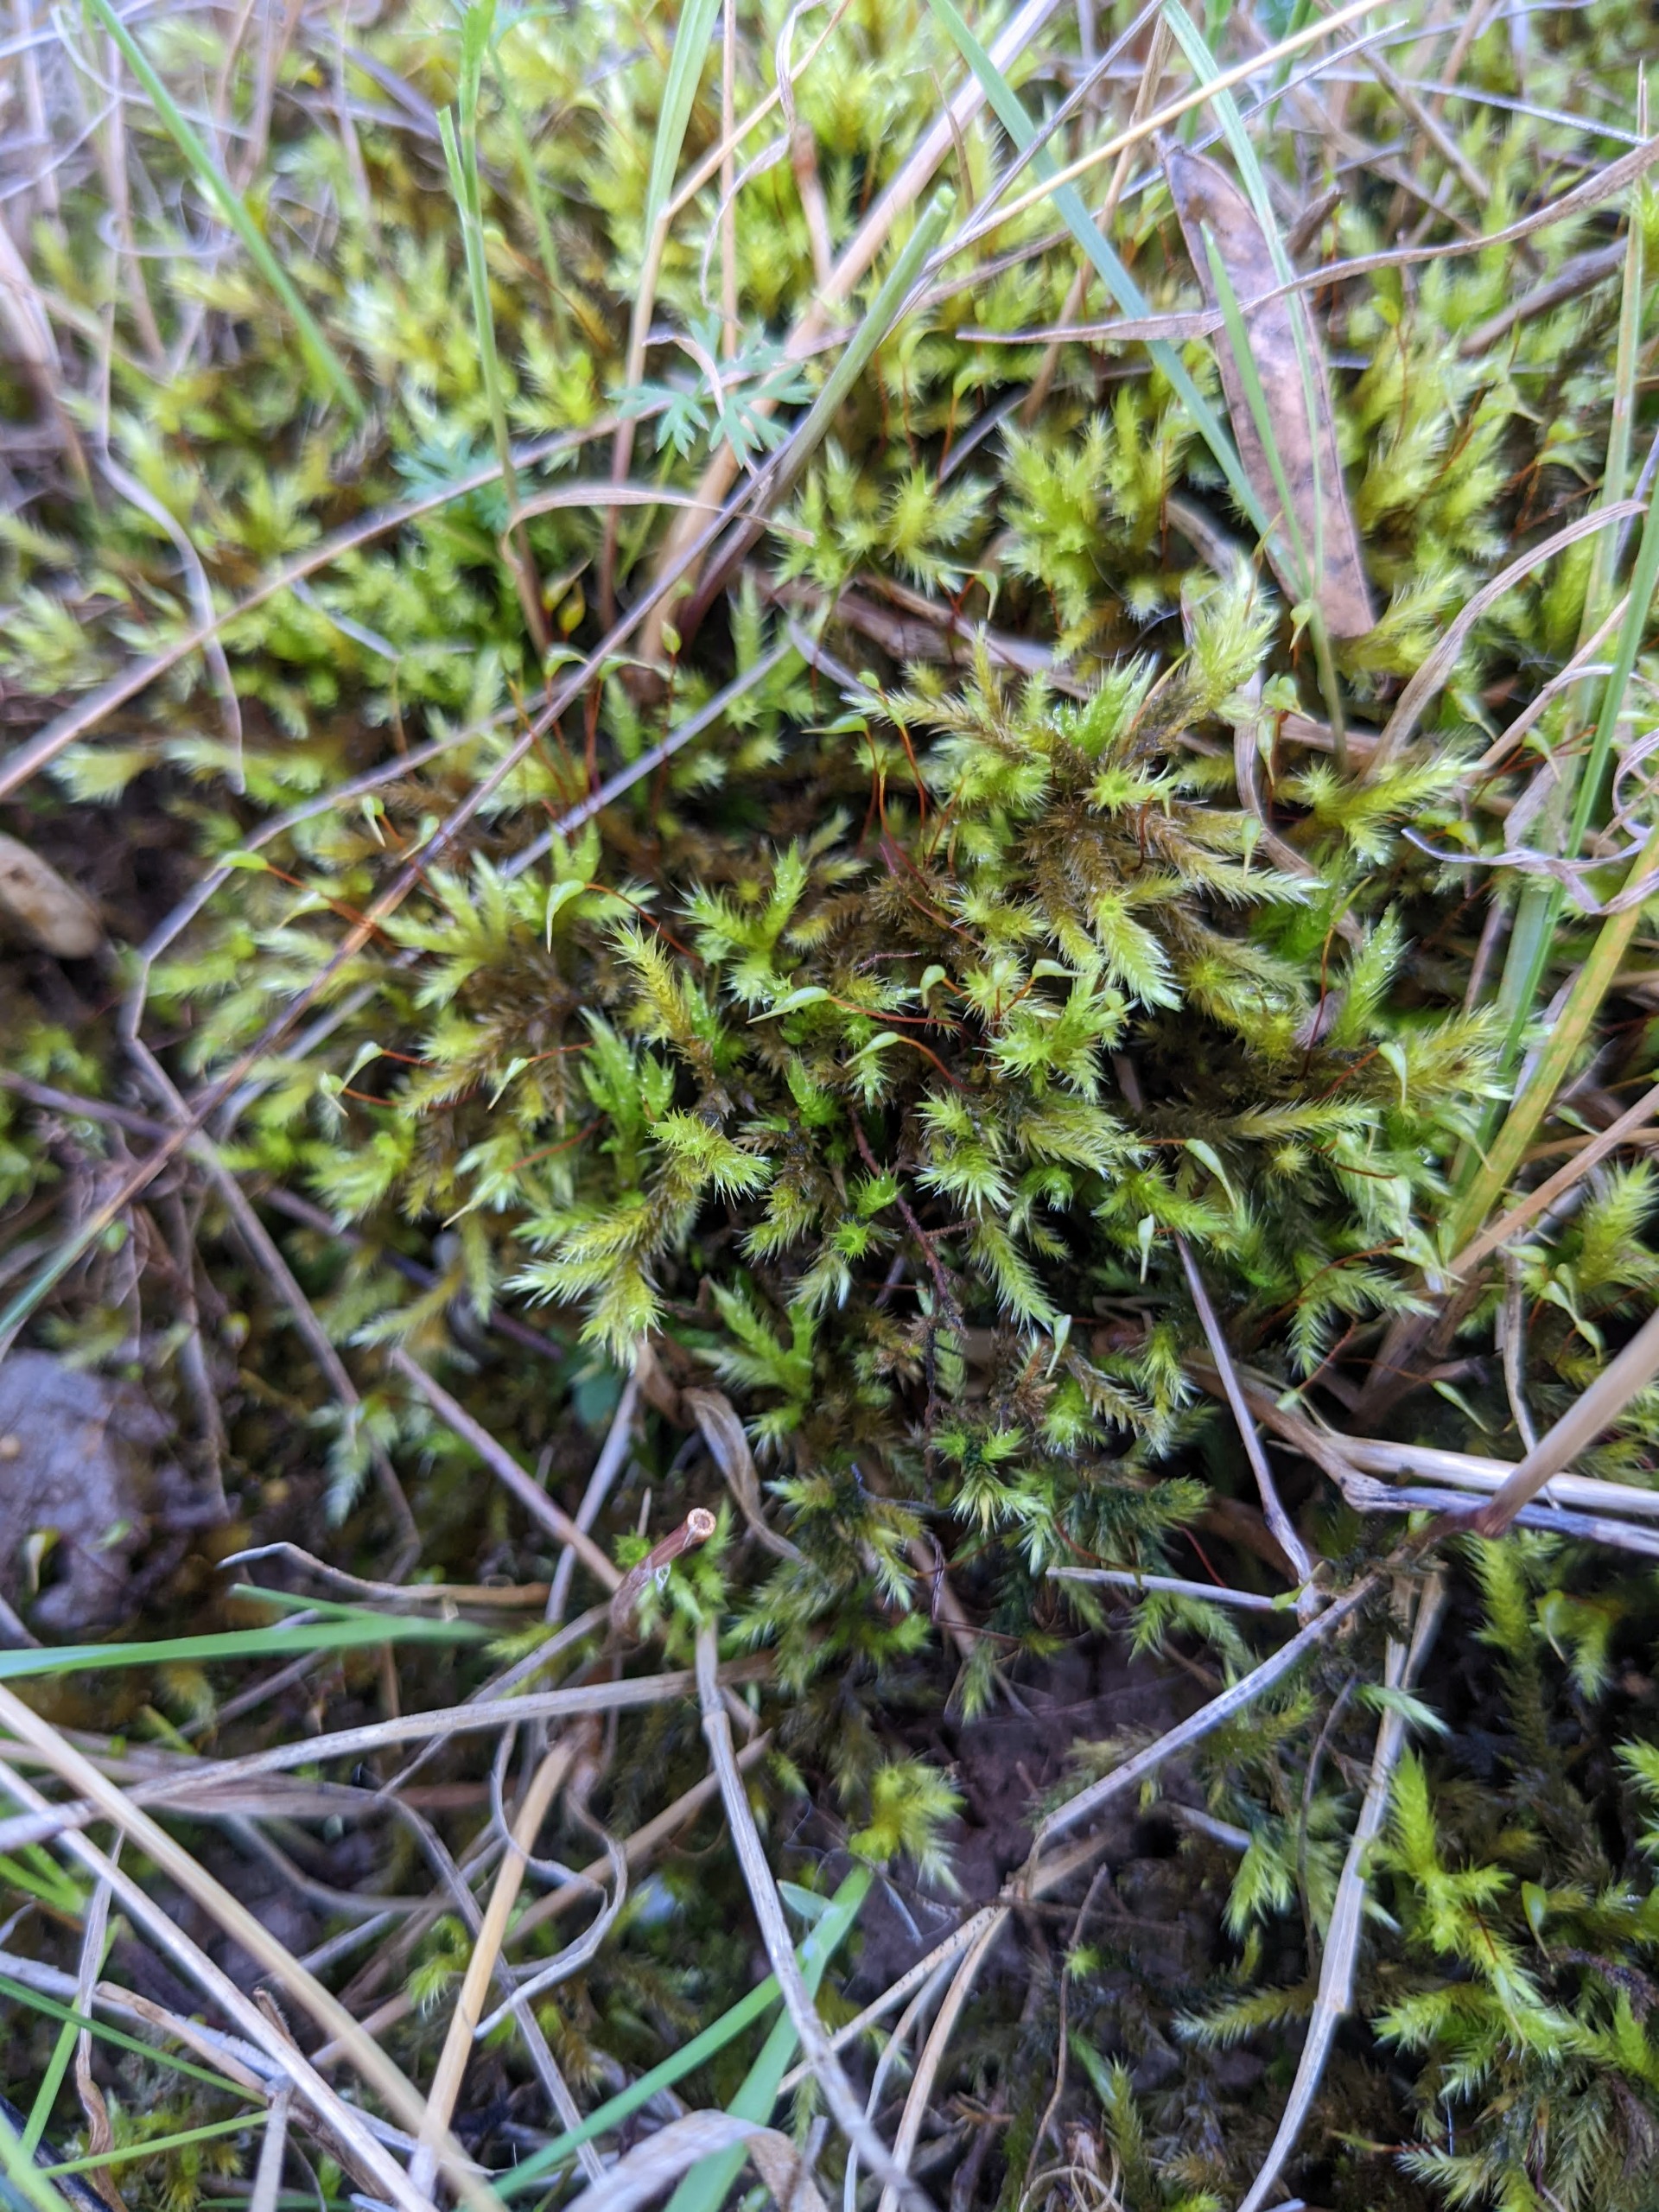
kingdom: Plantae
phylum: Bryophyta
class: Bryopsida
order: Hypnales
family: Brachytheciaceae
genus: Homalothecium
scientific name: Homalothecium lutescens
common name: Gul krumkapsel
